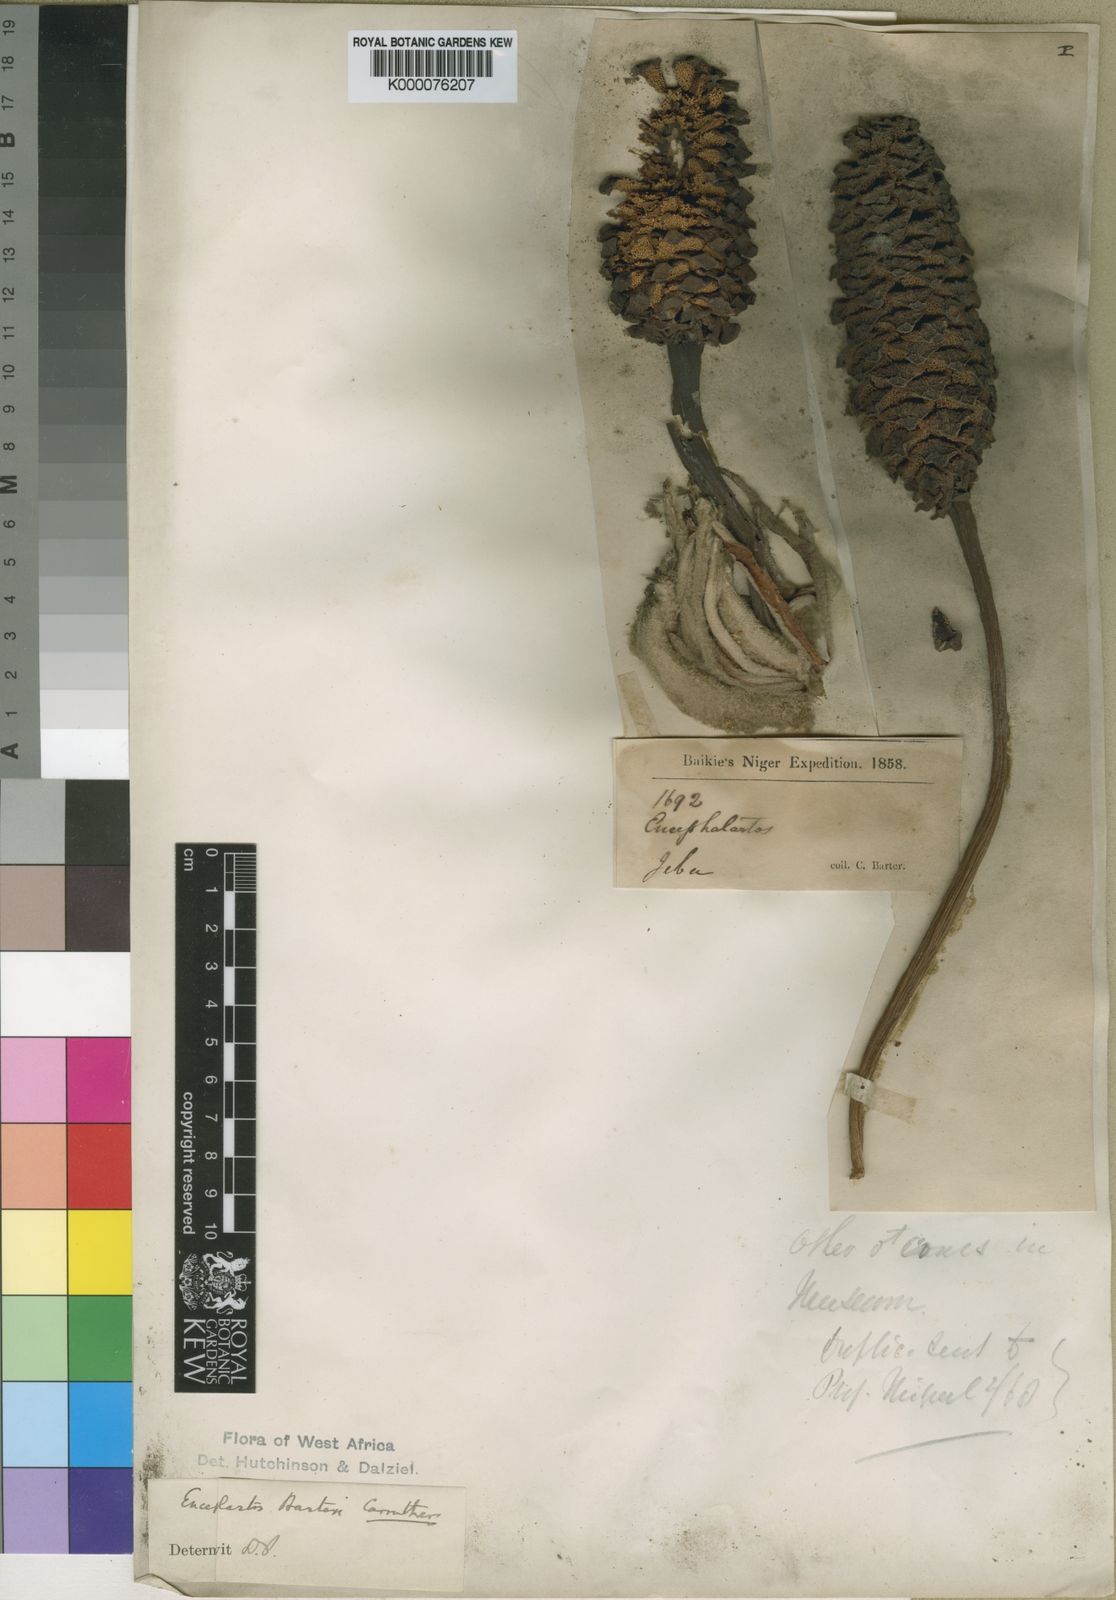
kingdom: Plantae
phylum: Tracheophyta
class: Cycadopsida
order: Cycadales
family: Zamiaceae
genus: Encephalartos
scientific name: Encephalartos barteri
